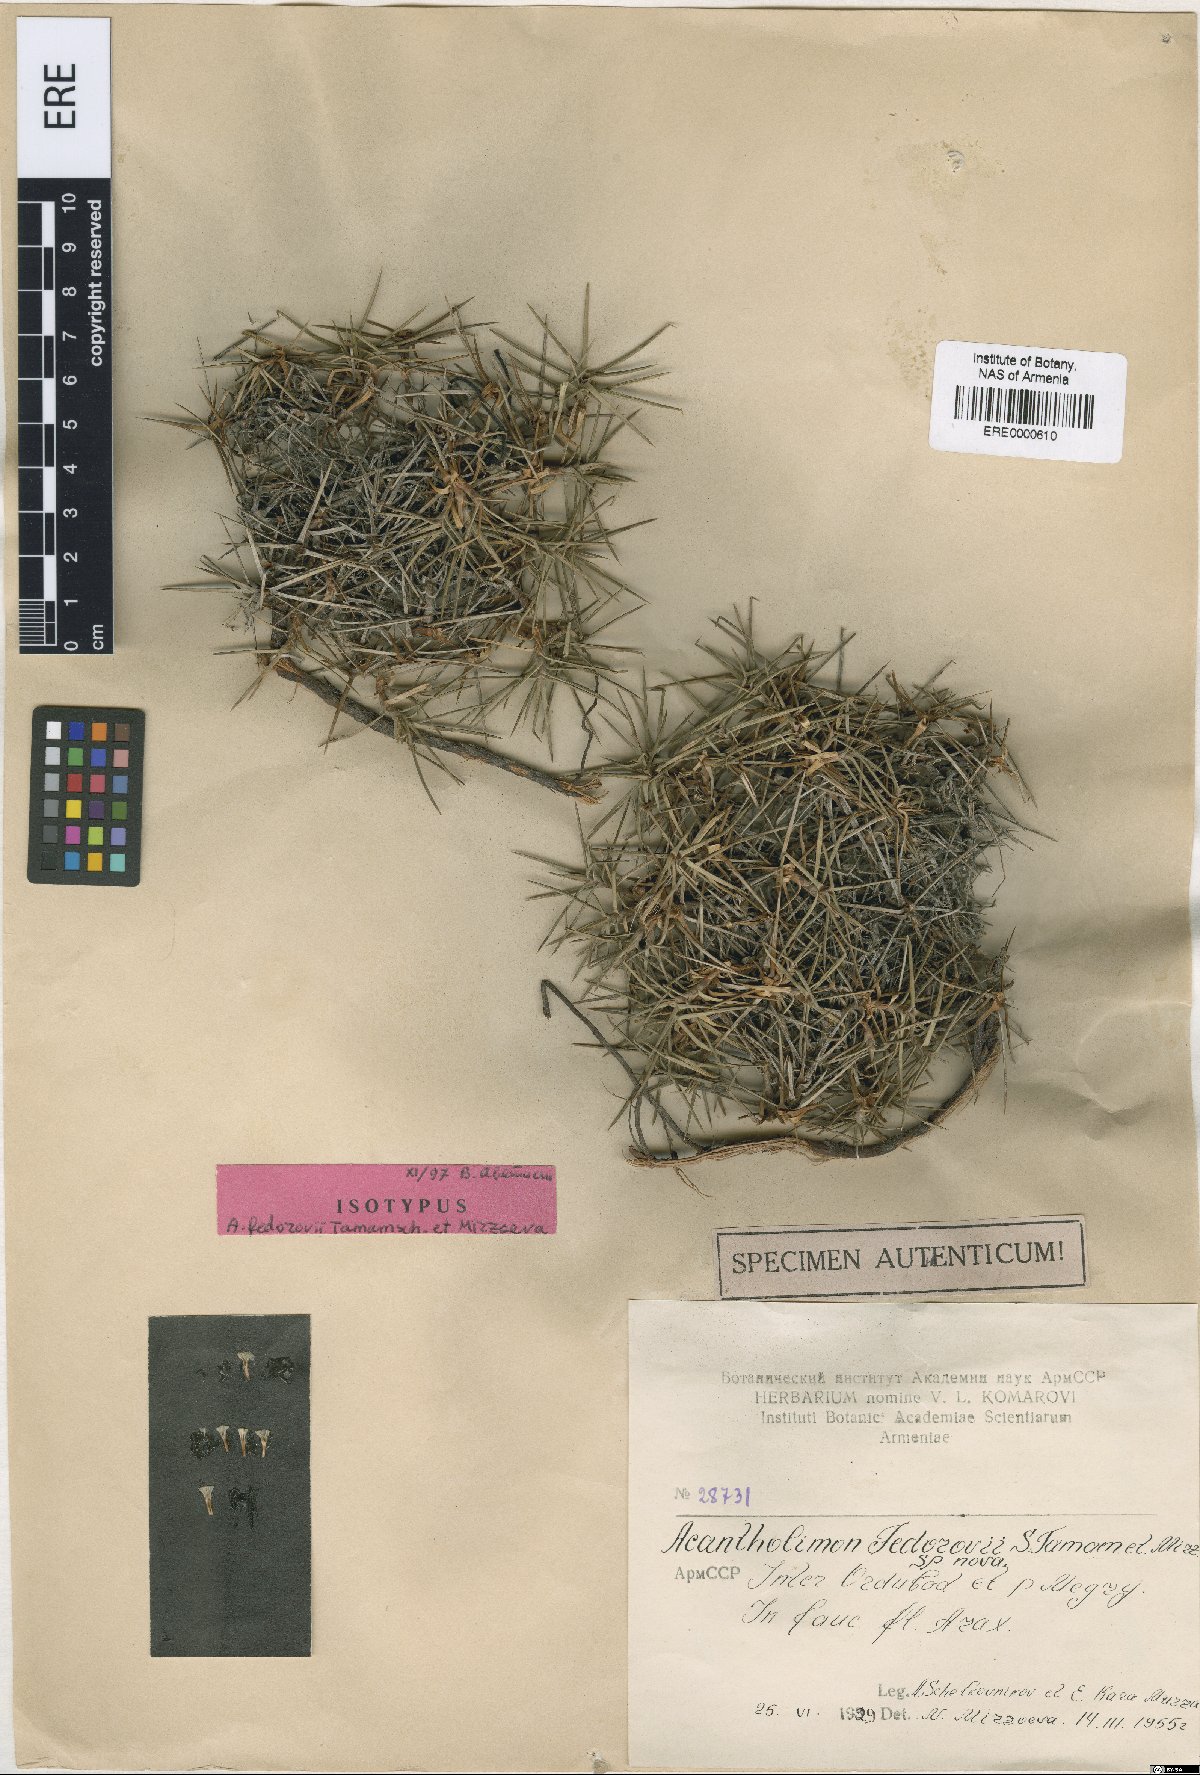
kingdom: Plantae
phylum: Tracheophyta
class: Magnoliopsida
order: Caryophyllales
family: Plumbaginaceae
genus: Acantholimon
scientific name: Acantholimon fedorovii
